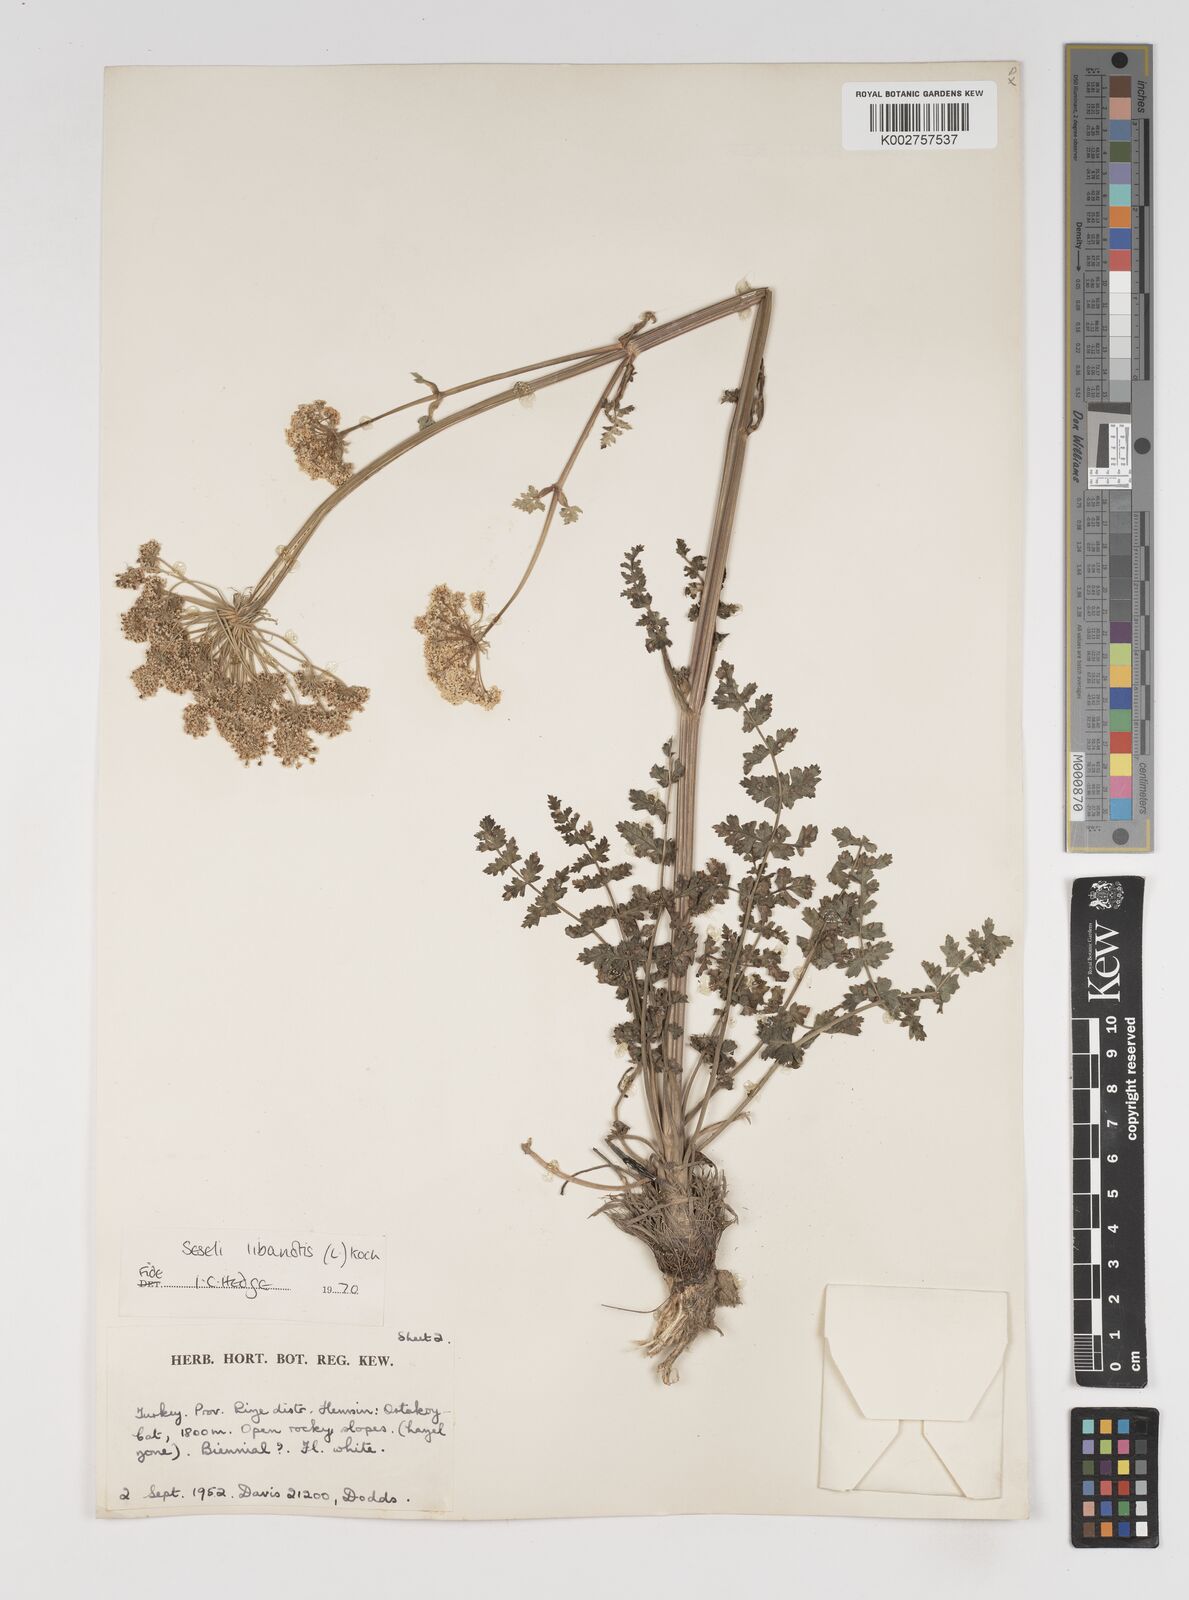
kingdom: Plantae
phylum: Tracheophyta
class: Magnoliopsida
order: Apiales
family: Apiaceae
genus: Seseli
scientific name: Seseli libanotis
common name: Mooncarrot
